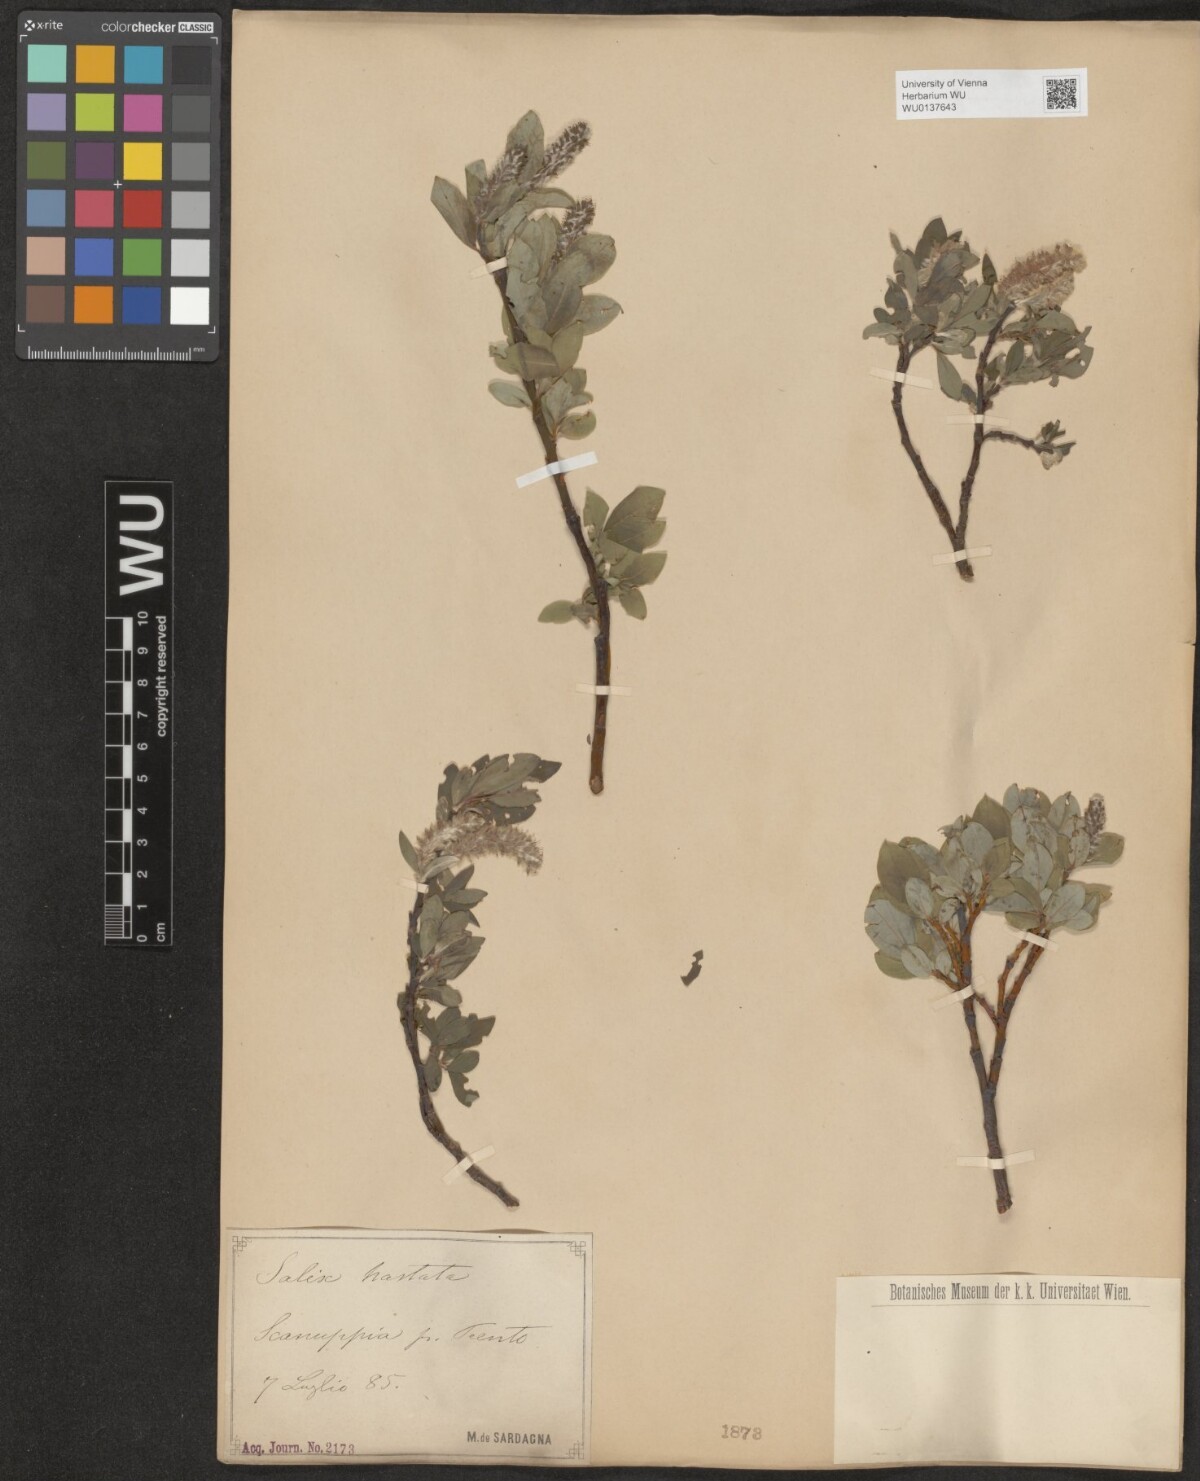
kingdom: Plantae
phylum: Tracheophyta
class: Magnoliopsida
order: Malpighiales
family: Salicaceae
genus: Salix
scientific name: Salix hastata
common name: Halberd willow
